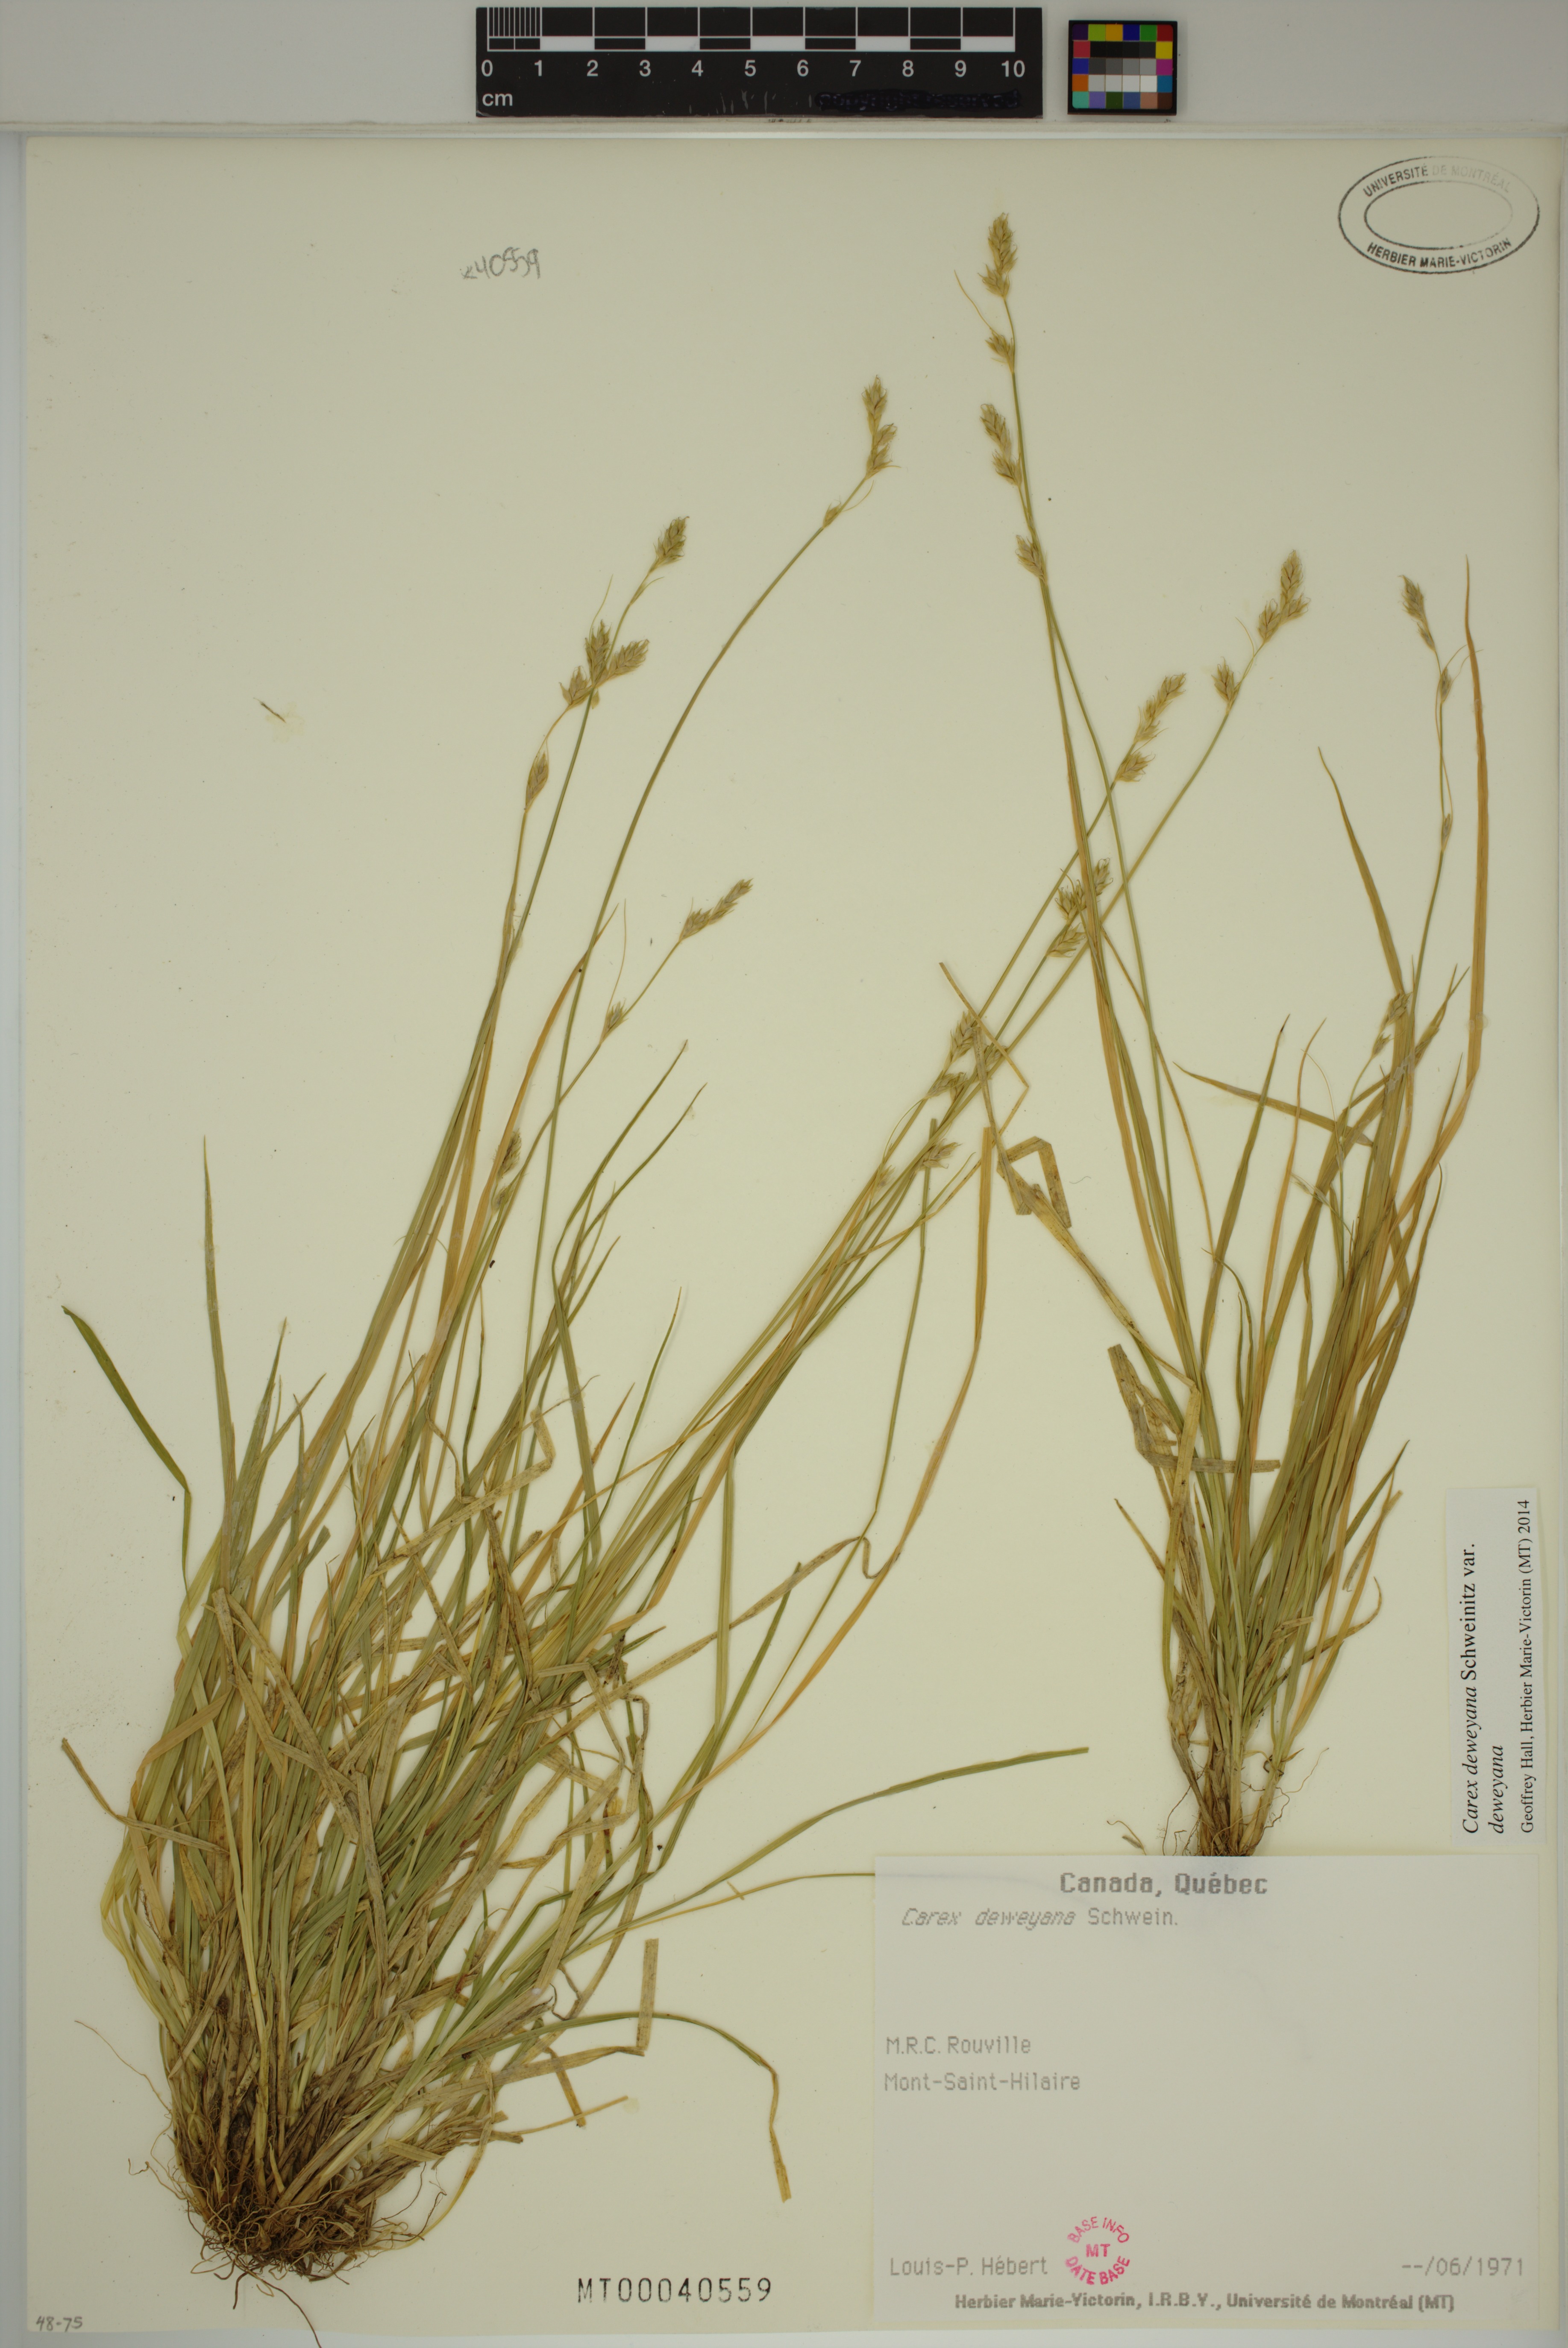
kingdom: Plantae
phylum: Tracheophyta
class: Liliopsida
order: Poales
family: Cyperaceae
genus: Carex
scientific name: Carex deweyana
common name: Dewey's sedge
